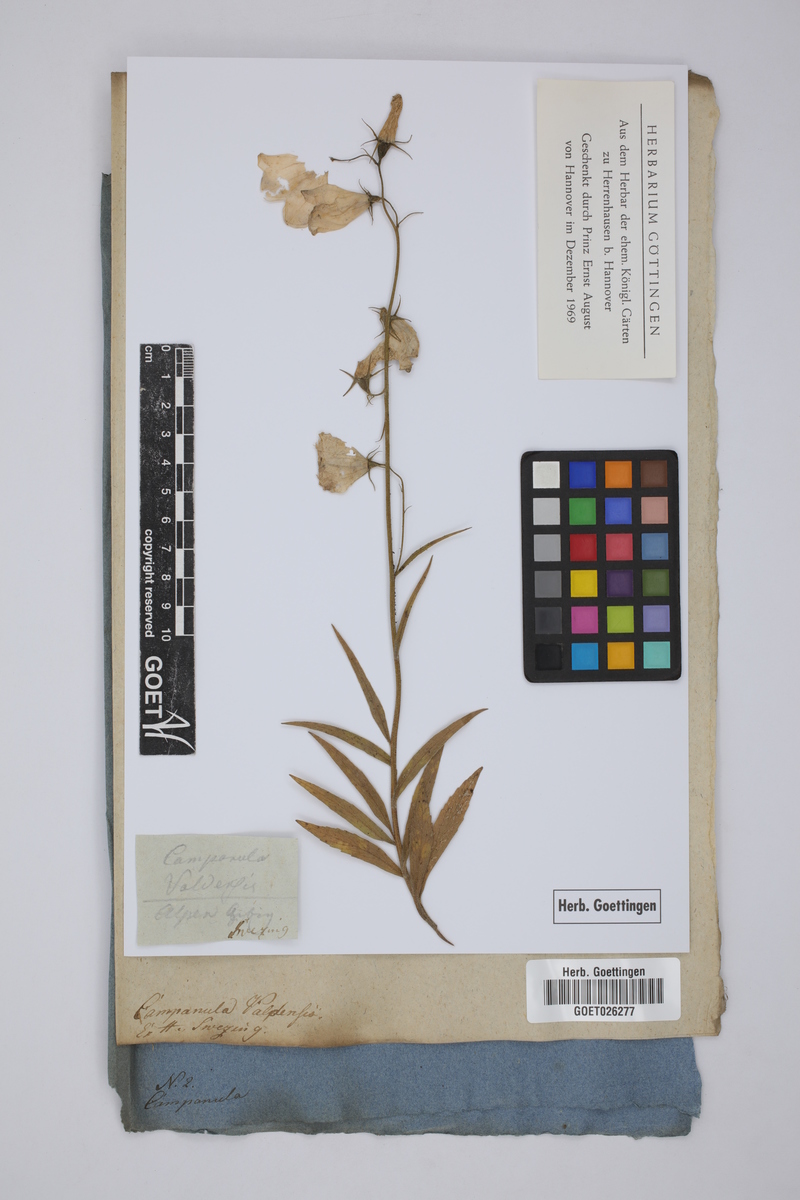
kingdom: Plantae
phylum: Tracheophyta
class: Magnoliopsida
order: Asterales
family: Campanulaceae
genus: Campanula
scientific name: Campanula scheuchzeri
